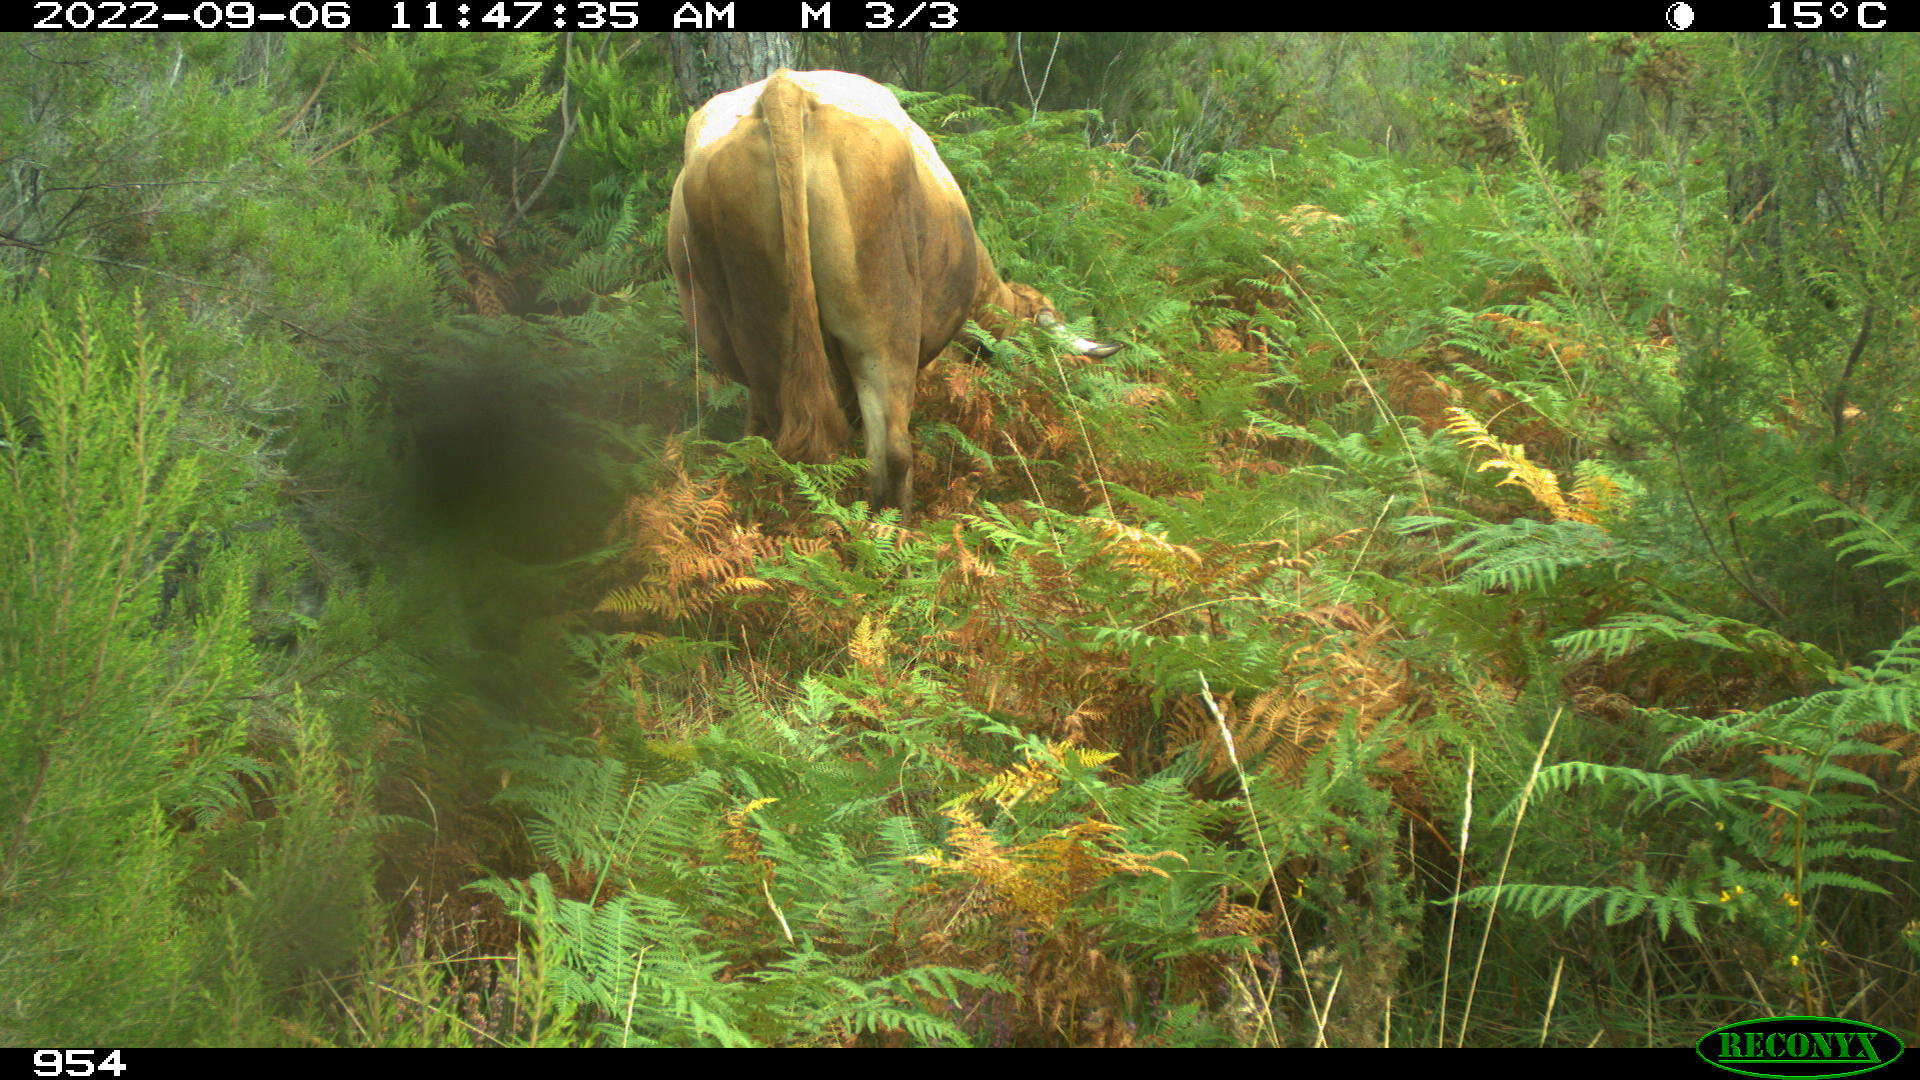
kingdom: Animalia
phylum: Chordata
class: Mammalia
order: Artiodactyla
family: Bovidae
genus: Bos
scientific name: Bos taurus
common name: Domesticated cattle
